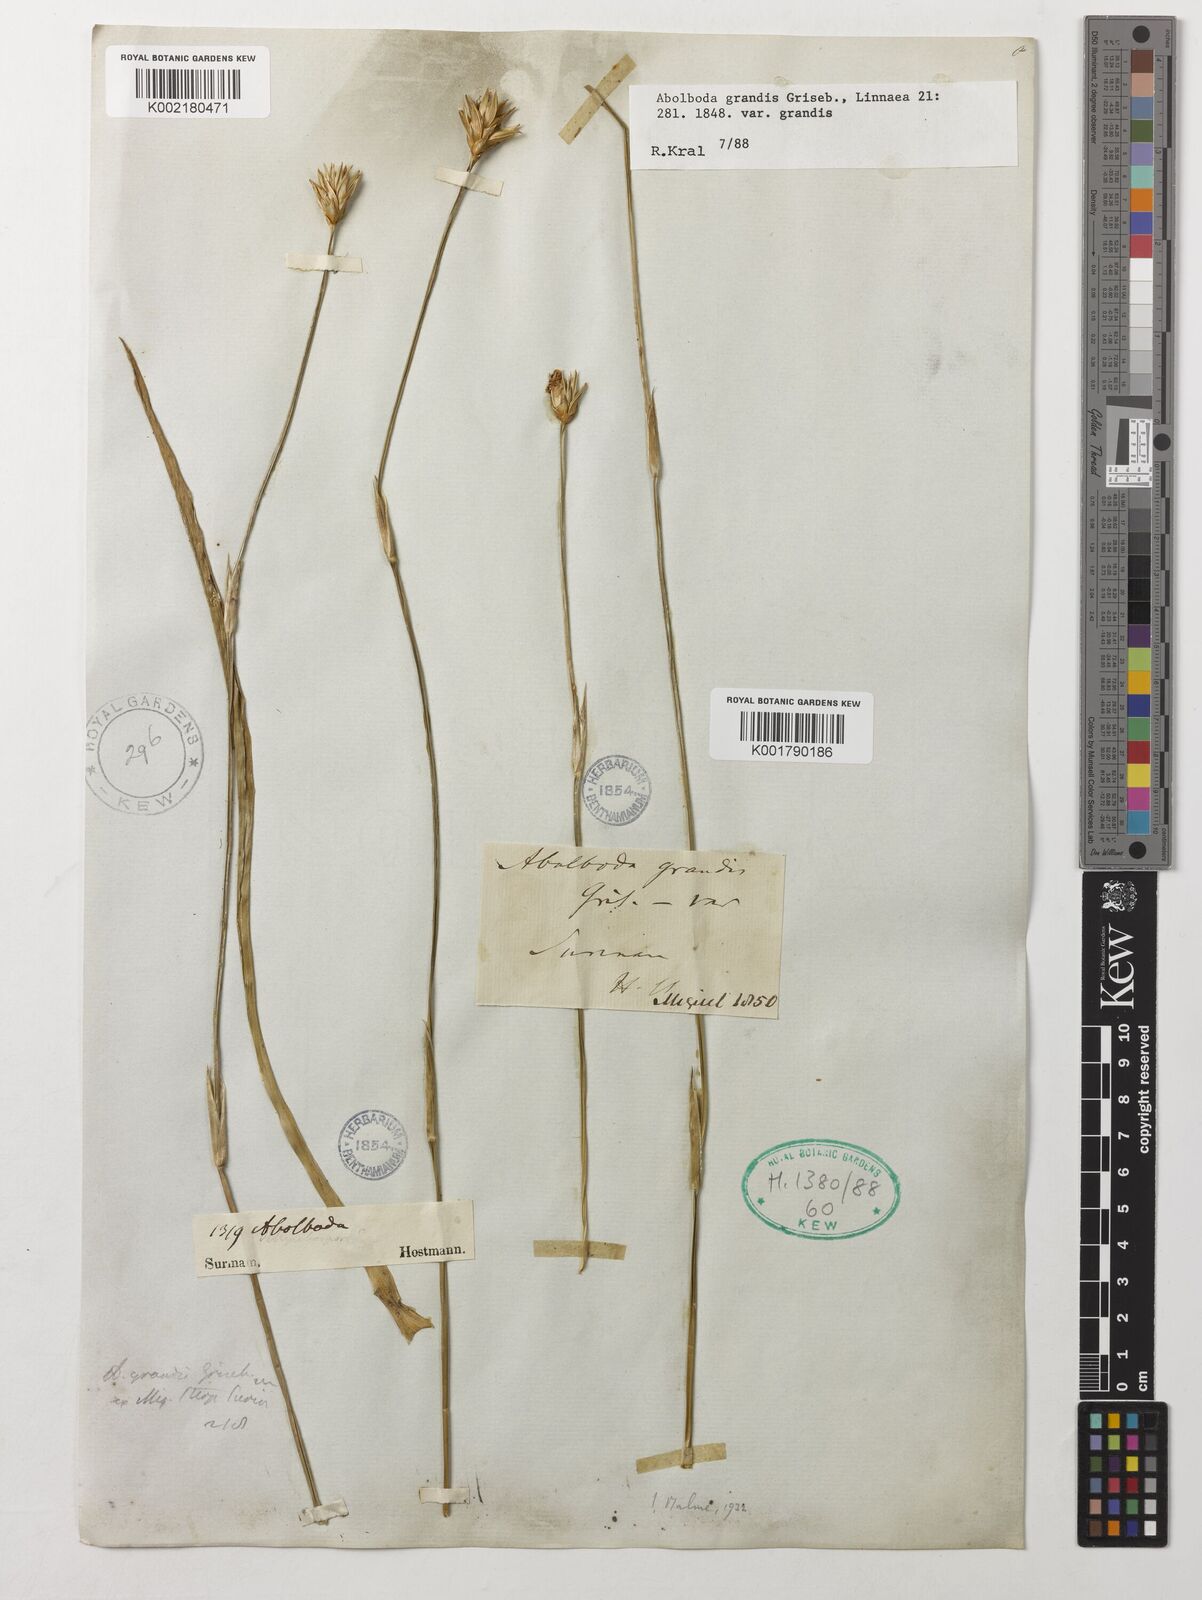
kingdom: Plantae
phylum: Tracheophyta
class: Liliopsida
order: Poales
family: Xyridaceae
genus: Abolboda
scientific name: Abolboda grandis
